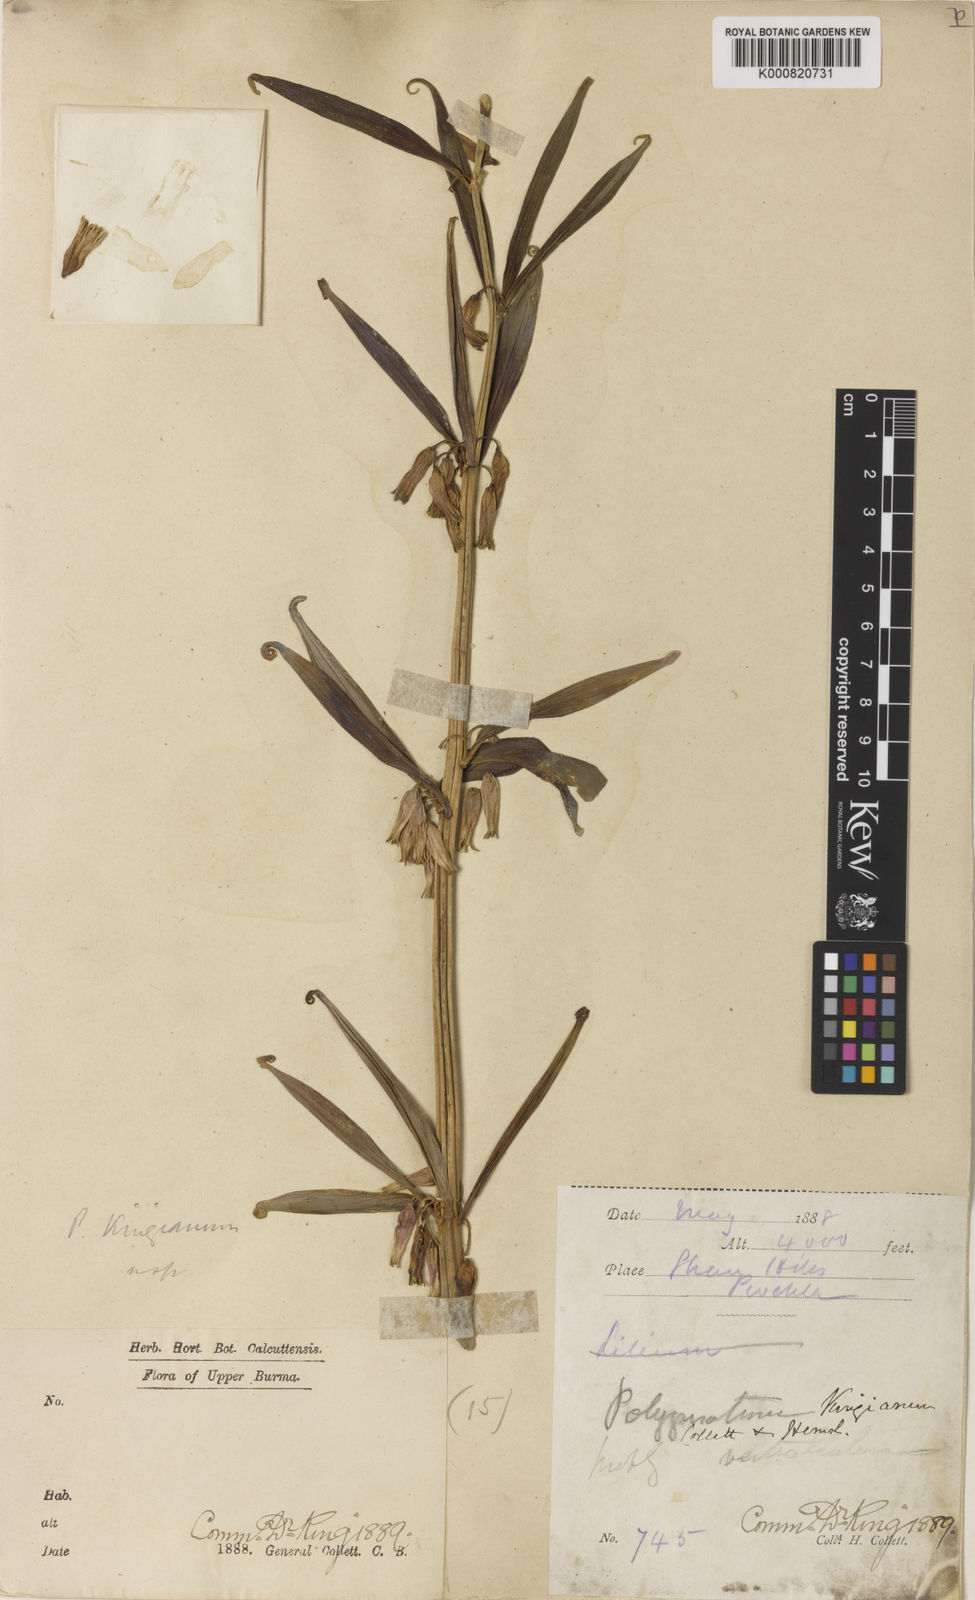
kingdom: Plantae
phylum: Tracheophyta
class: Liliopsida
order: Asparagales
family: Asparagaceae
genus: Polygonatum
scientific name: Polygonatum kingianum
